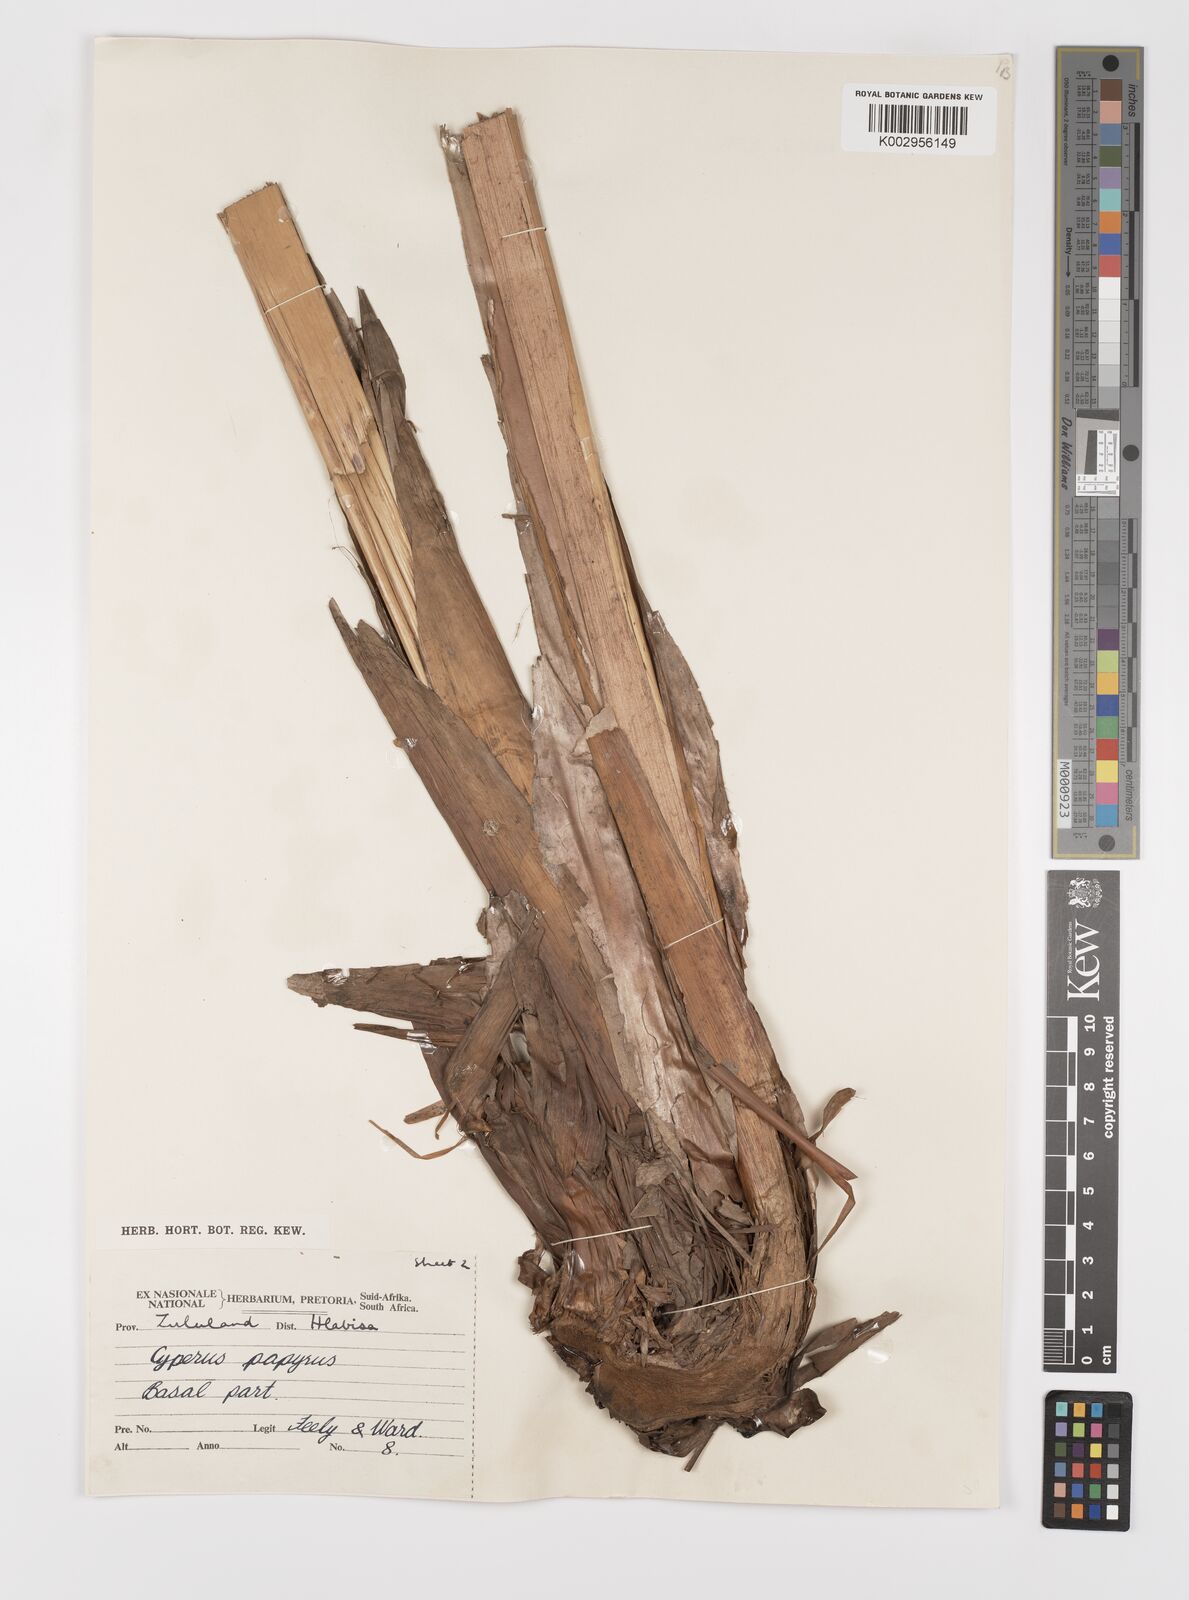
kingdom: Plantae
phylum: Tracheophyta
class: Liliopsida
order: Poales
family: Cyperaceae
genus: Cyperus
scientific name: Cyperus papyrus
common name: Papyrus
